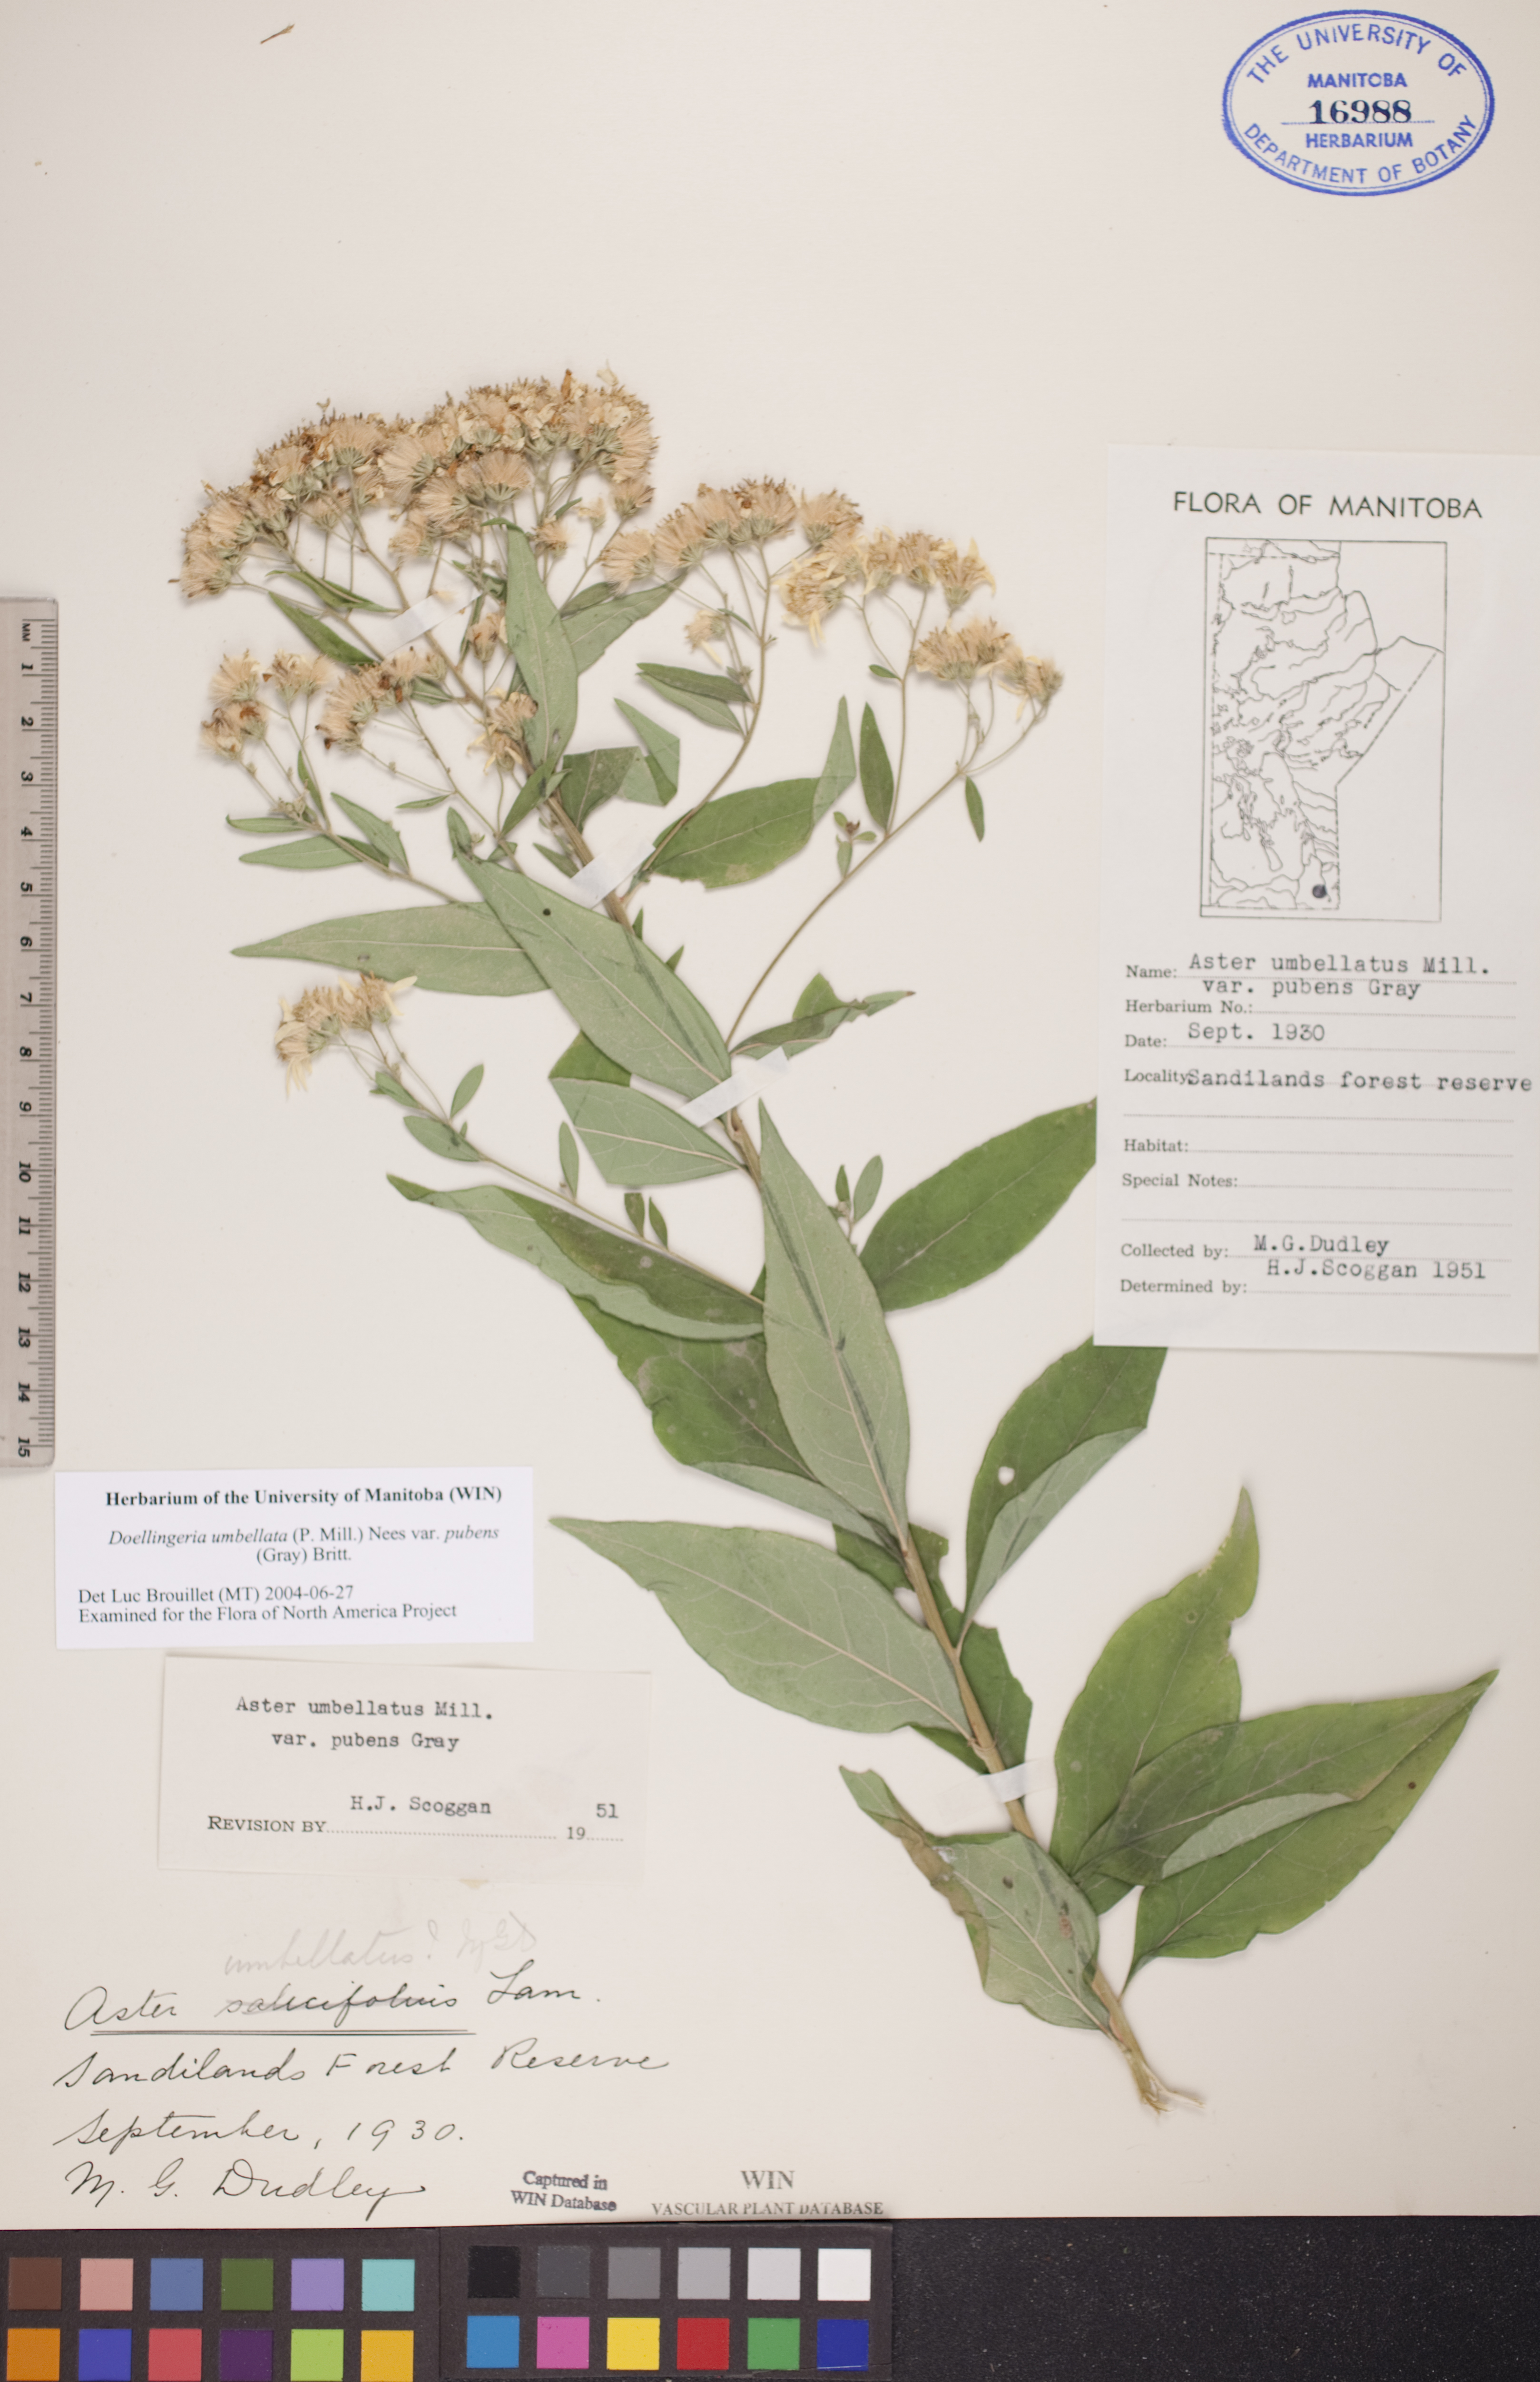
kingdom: Plantae
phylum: Tracheophyta
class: Magnoliopsida
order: Asterales
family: Asteraceae
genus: Doellingeria
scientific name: Doellingeria umbellata
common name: Flat-top white aster
